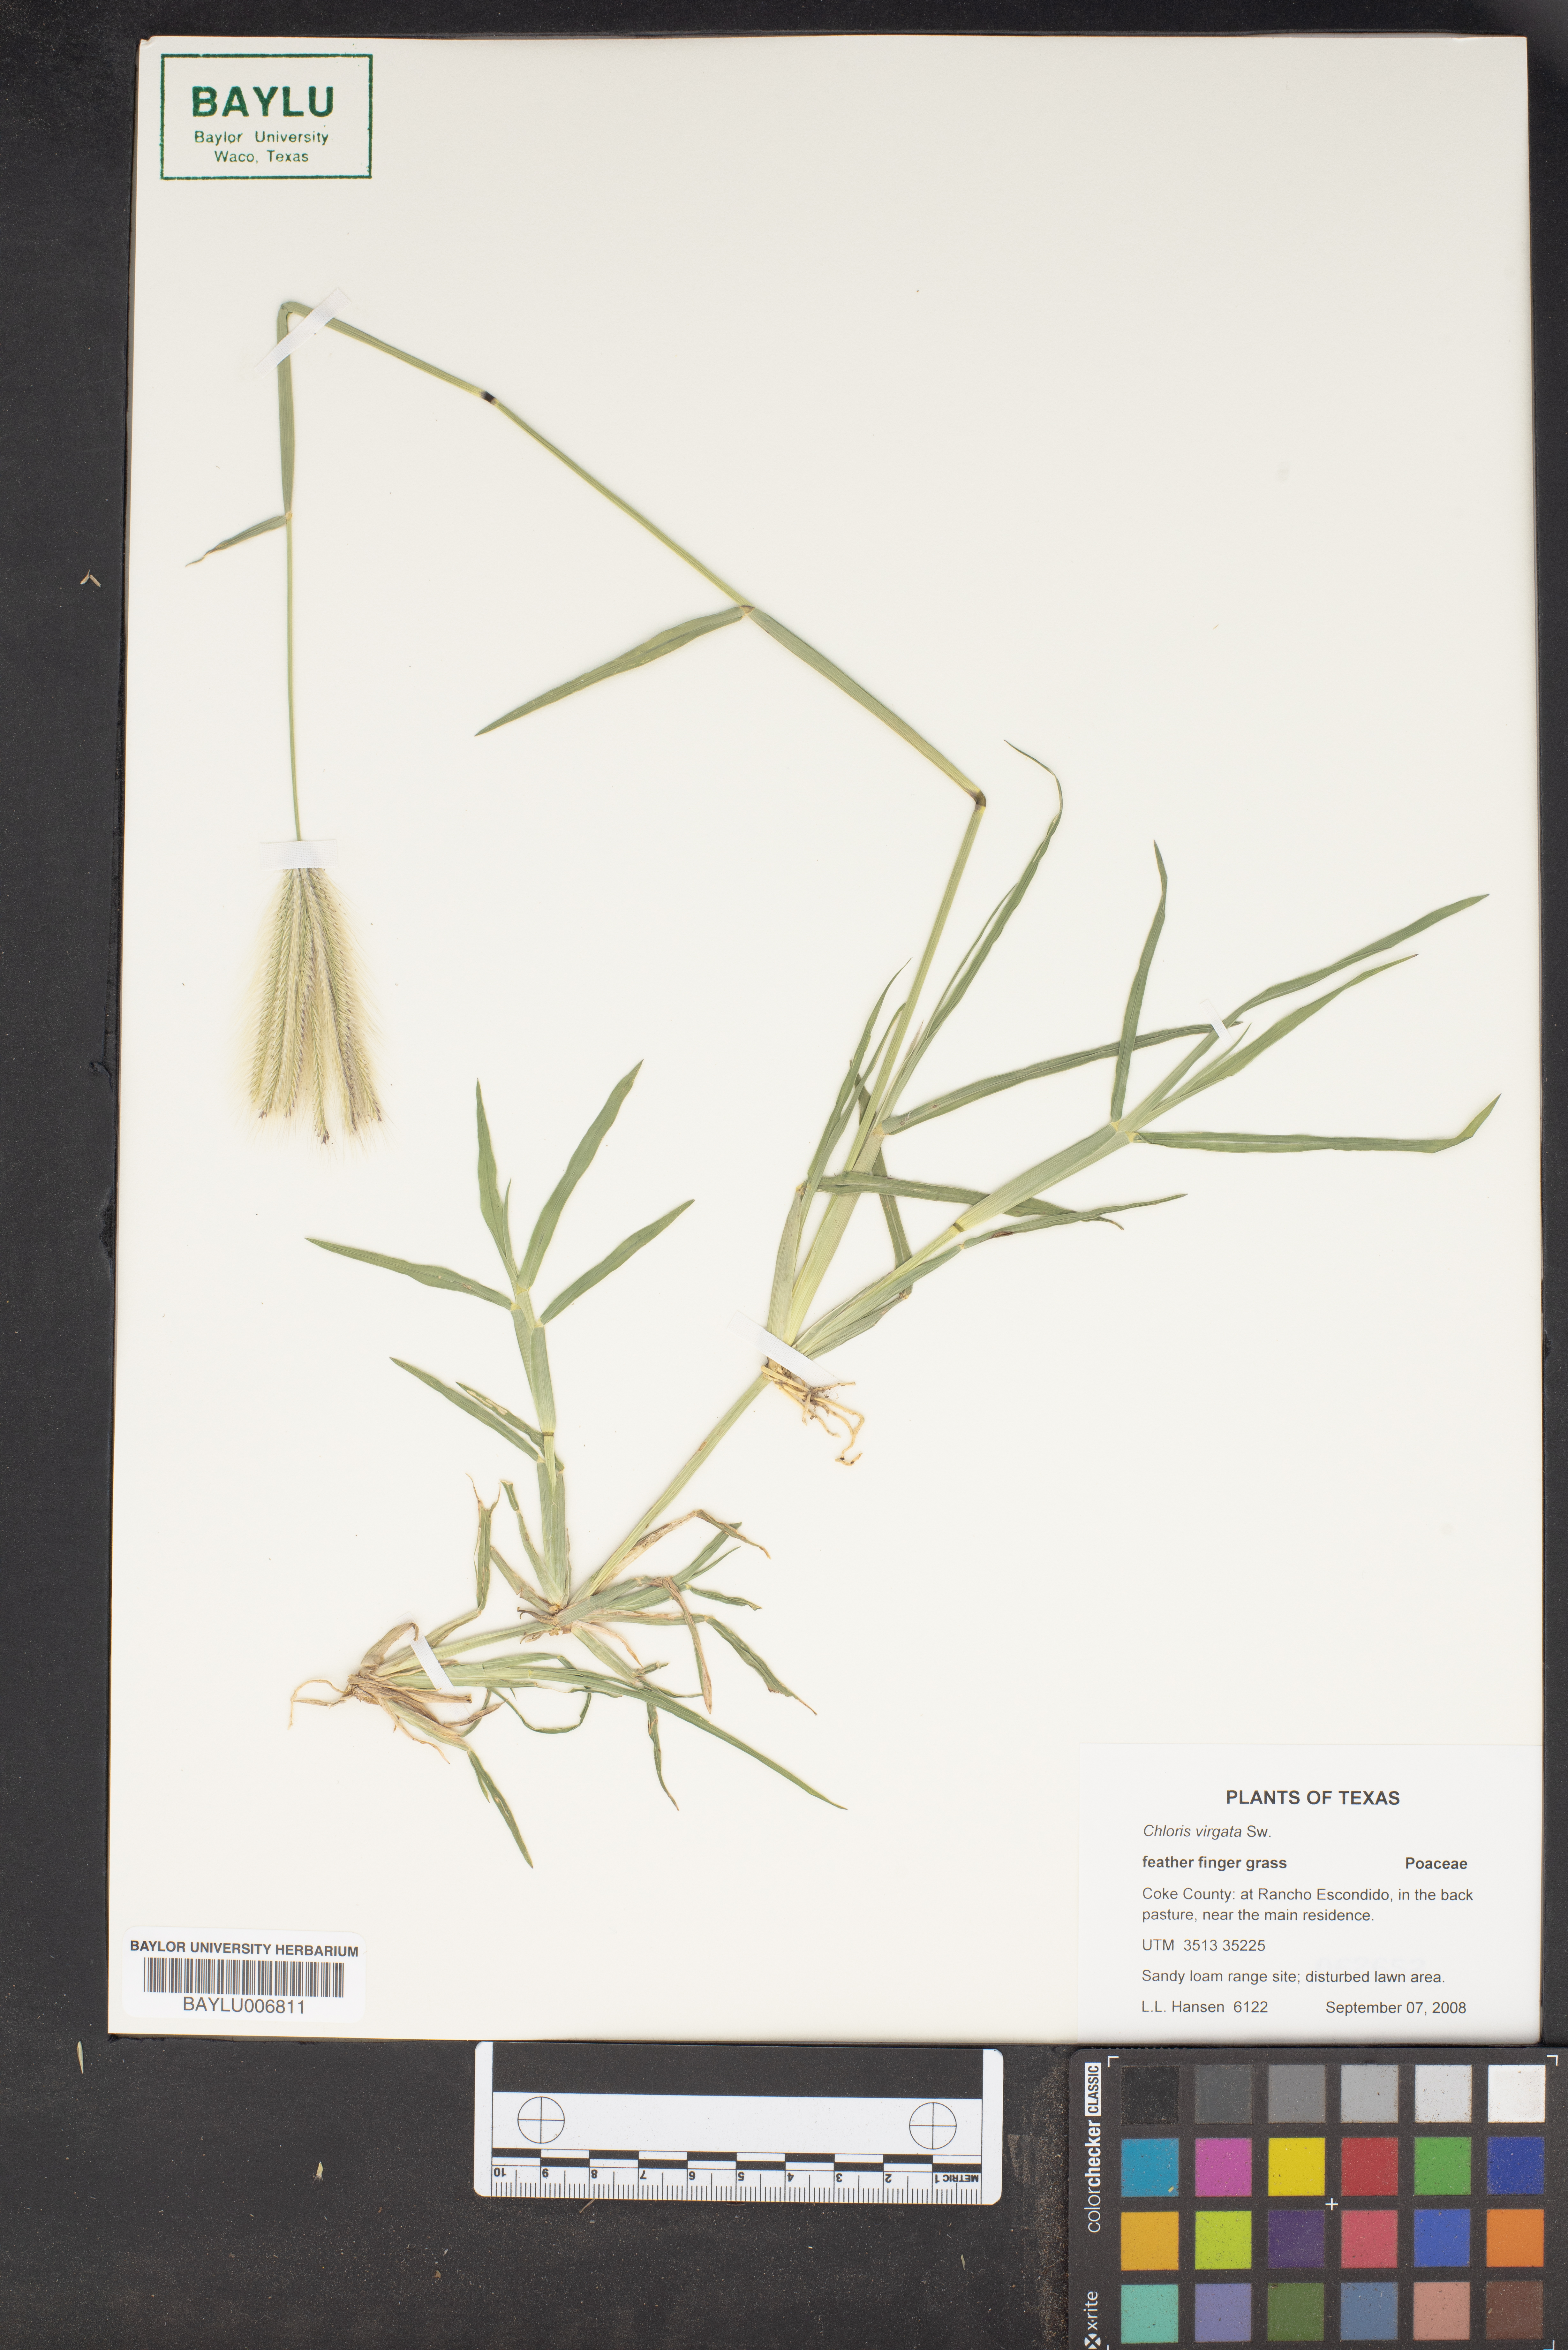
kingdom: Plantae
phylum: Tracheophyta
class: Liliopsida
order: Poales
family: Poaceae
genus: Chloris
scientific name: Chloris virgata
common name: Feathery rhodes-grass
